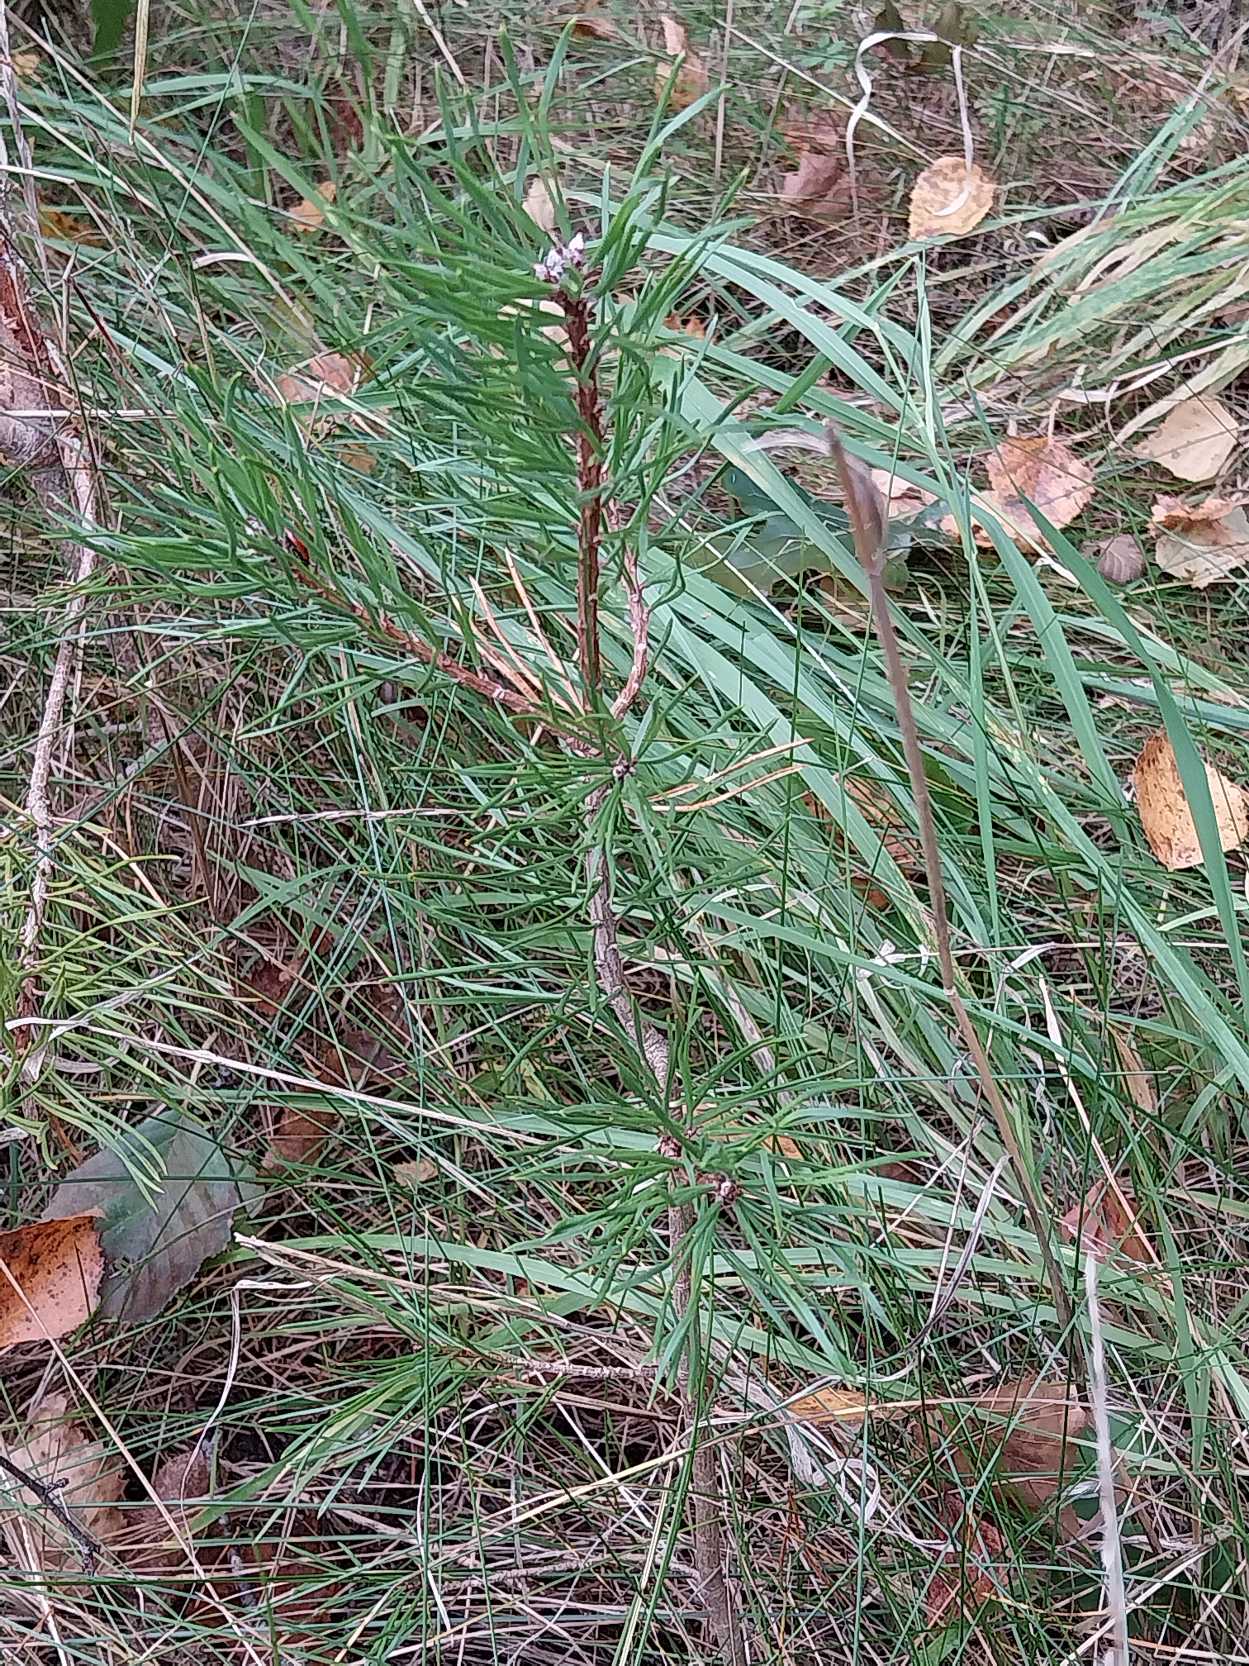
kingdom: Plantae
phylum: Tracheophyta
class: Pinopsida
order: Pinales
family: Pinaceae
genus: Pinus
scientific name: Pinus sylvestris
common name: Skov-fyr
